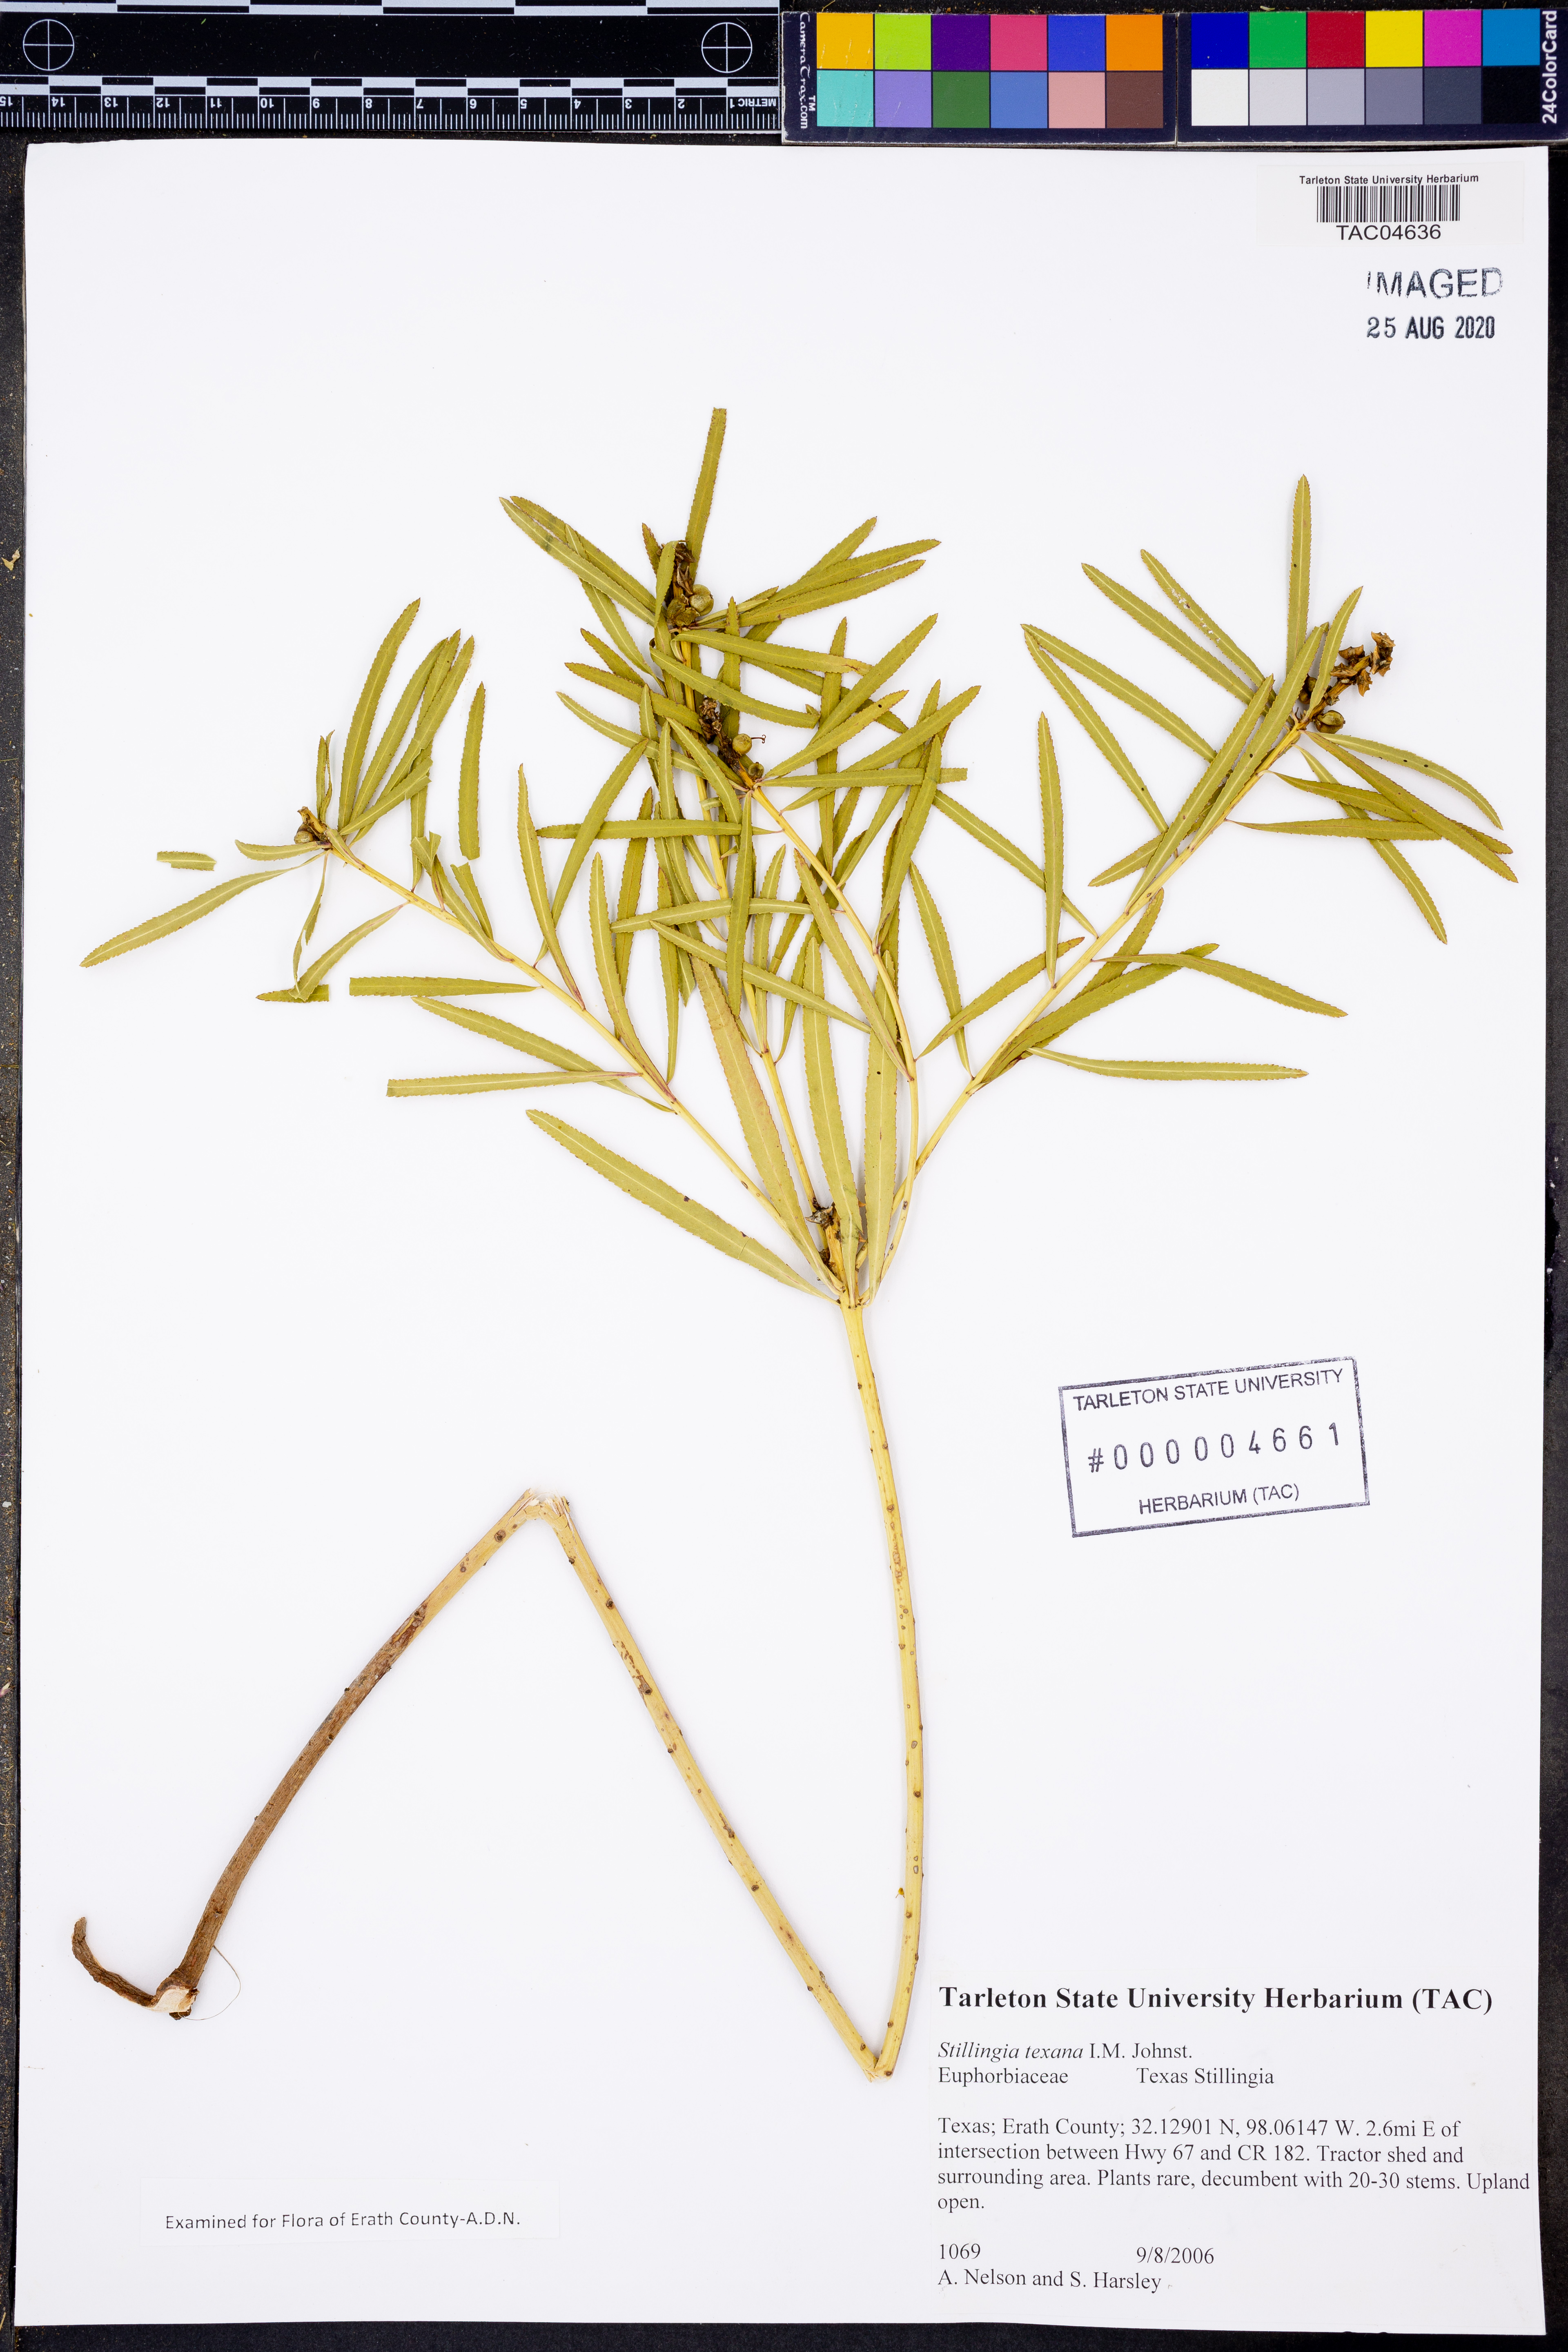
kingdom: Plantae
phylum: Tracheophyta
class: Magnoliopsida
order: Malpighiales
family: Euphorbiaceae
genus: Stillingia
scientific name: Stillingia texana
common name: Texas stillingia
